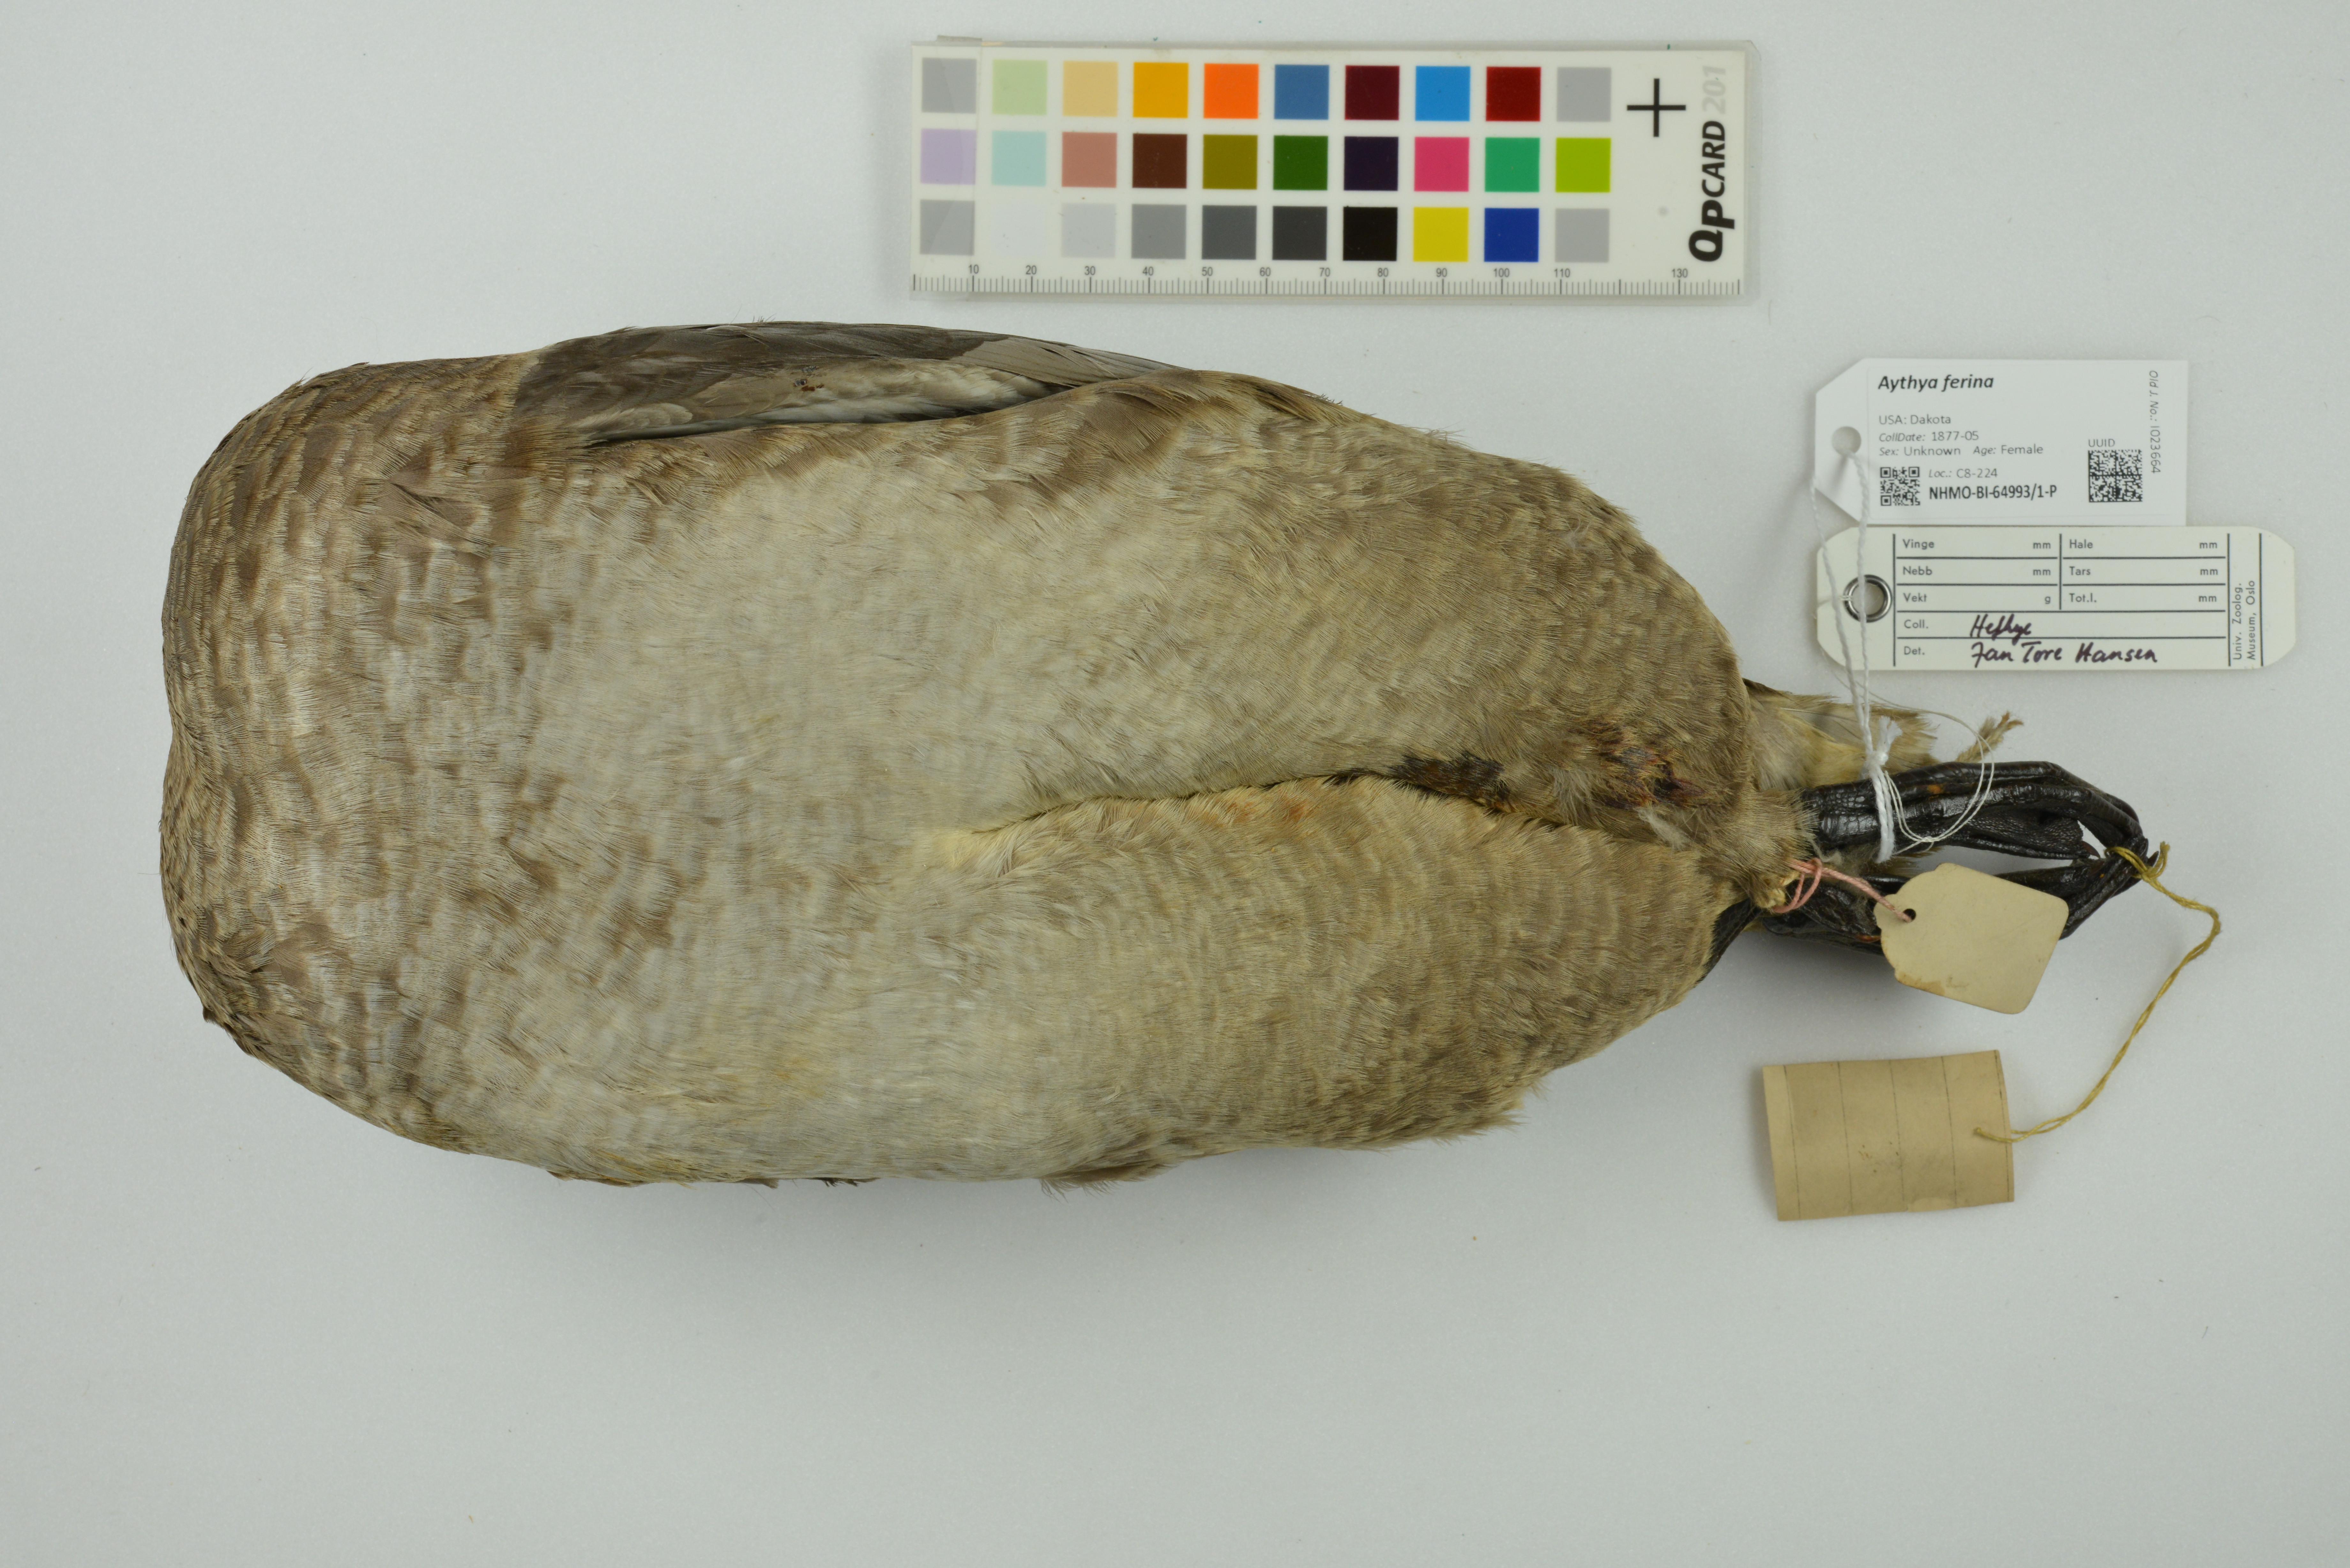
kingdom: Animalia
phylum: Chordata
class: Aves
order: Anseriformes
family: Anatidae
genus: Aythya
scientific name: Aythya ferina
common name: Common pochard
